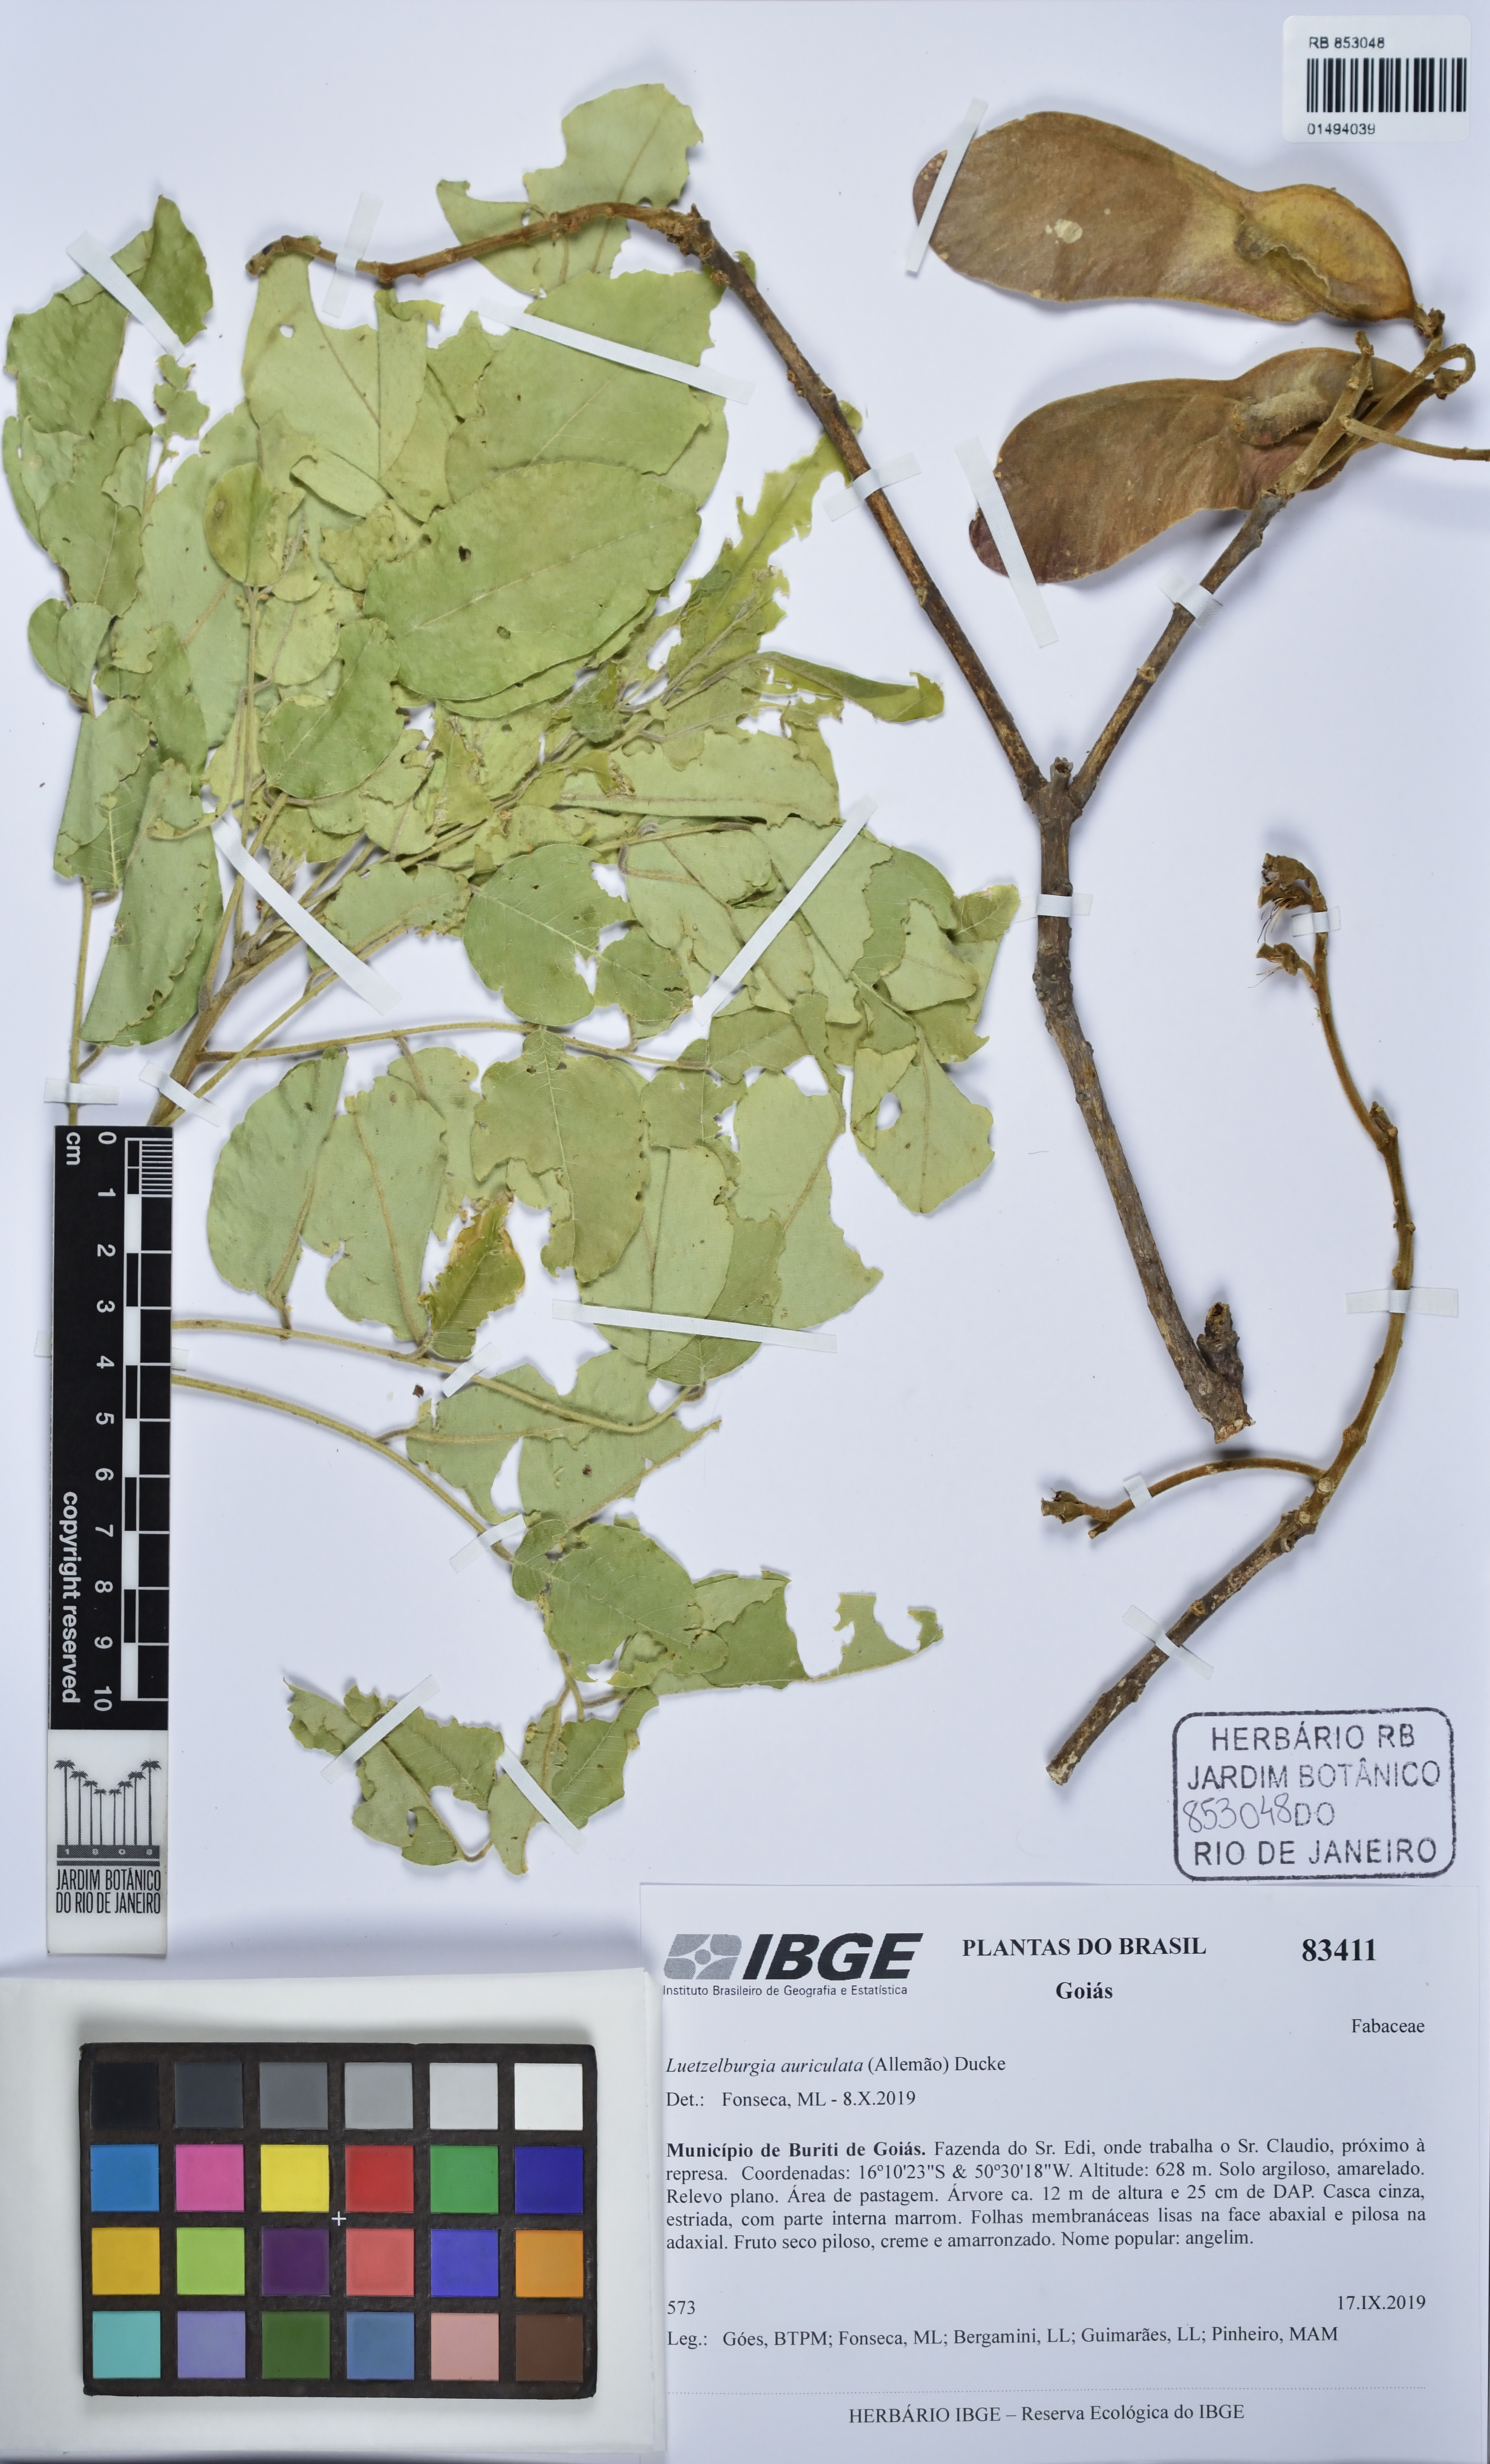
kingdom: Plantae
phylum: Tracheophyta
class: Magnoliopsida
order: Fabales
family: Fabaceae
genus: Luetzelburgia
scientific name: Luetzelburgia auriculata
